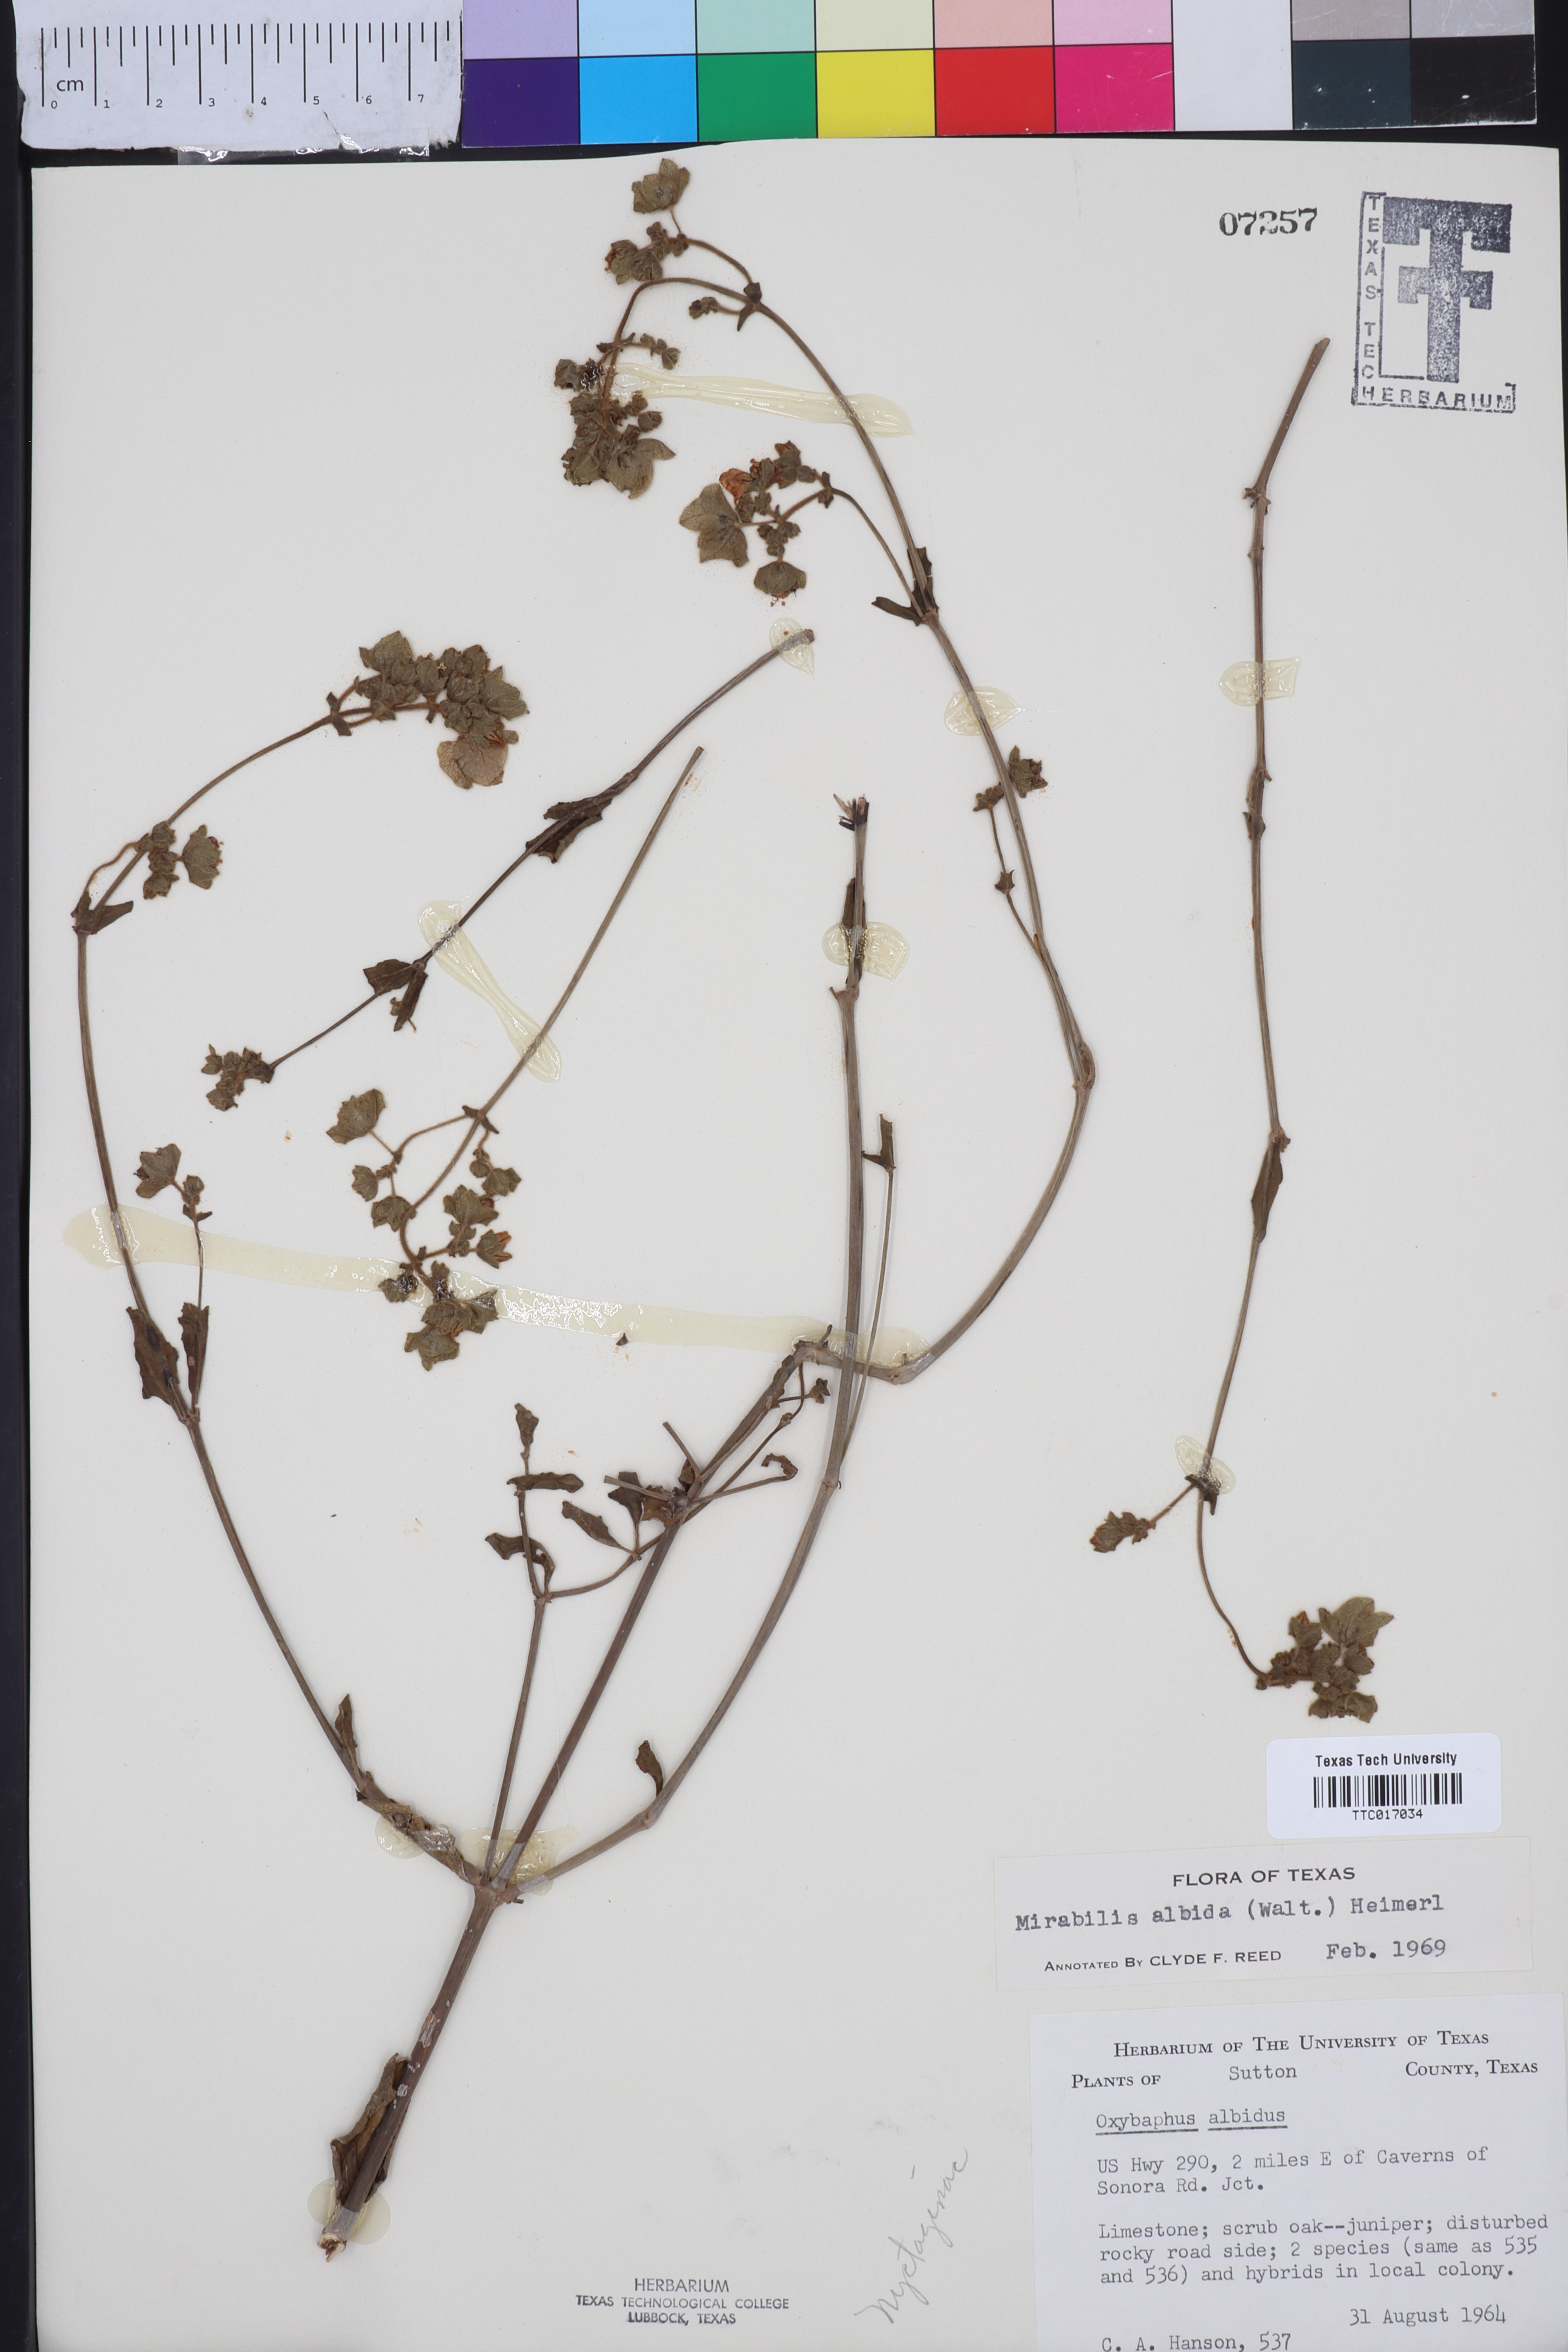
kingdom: Plantae
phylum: Tracheophyta
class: Magnoliopsida
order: Caryophyllales
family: Nyctaginaceae
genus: Mirabilis
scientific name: Mirabilis albida
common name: Hairy four-o'clock
